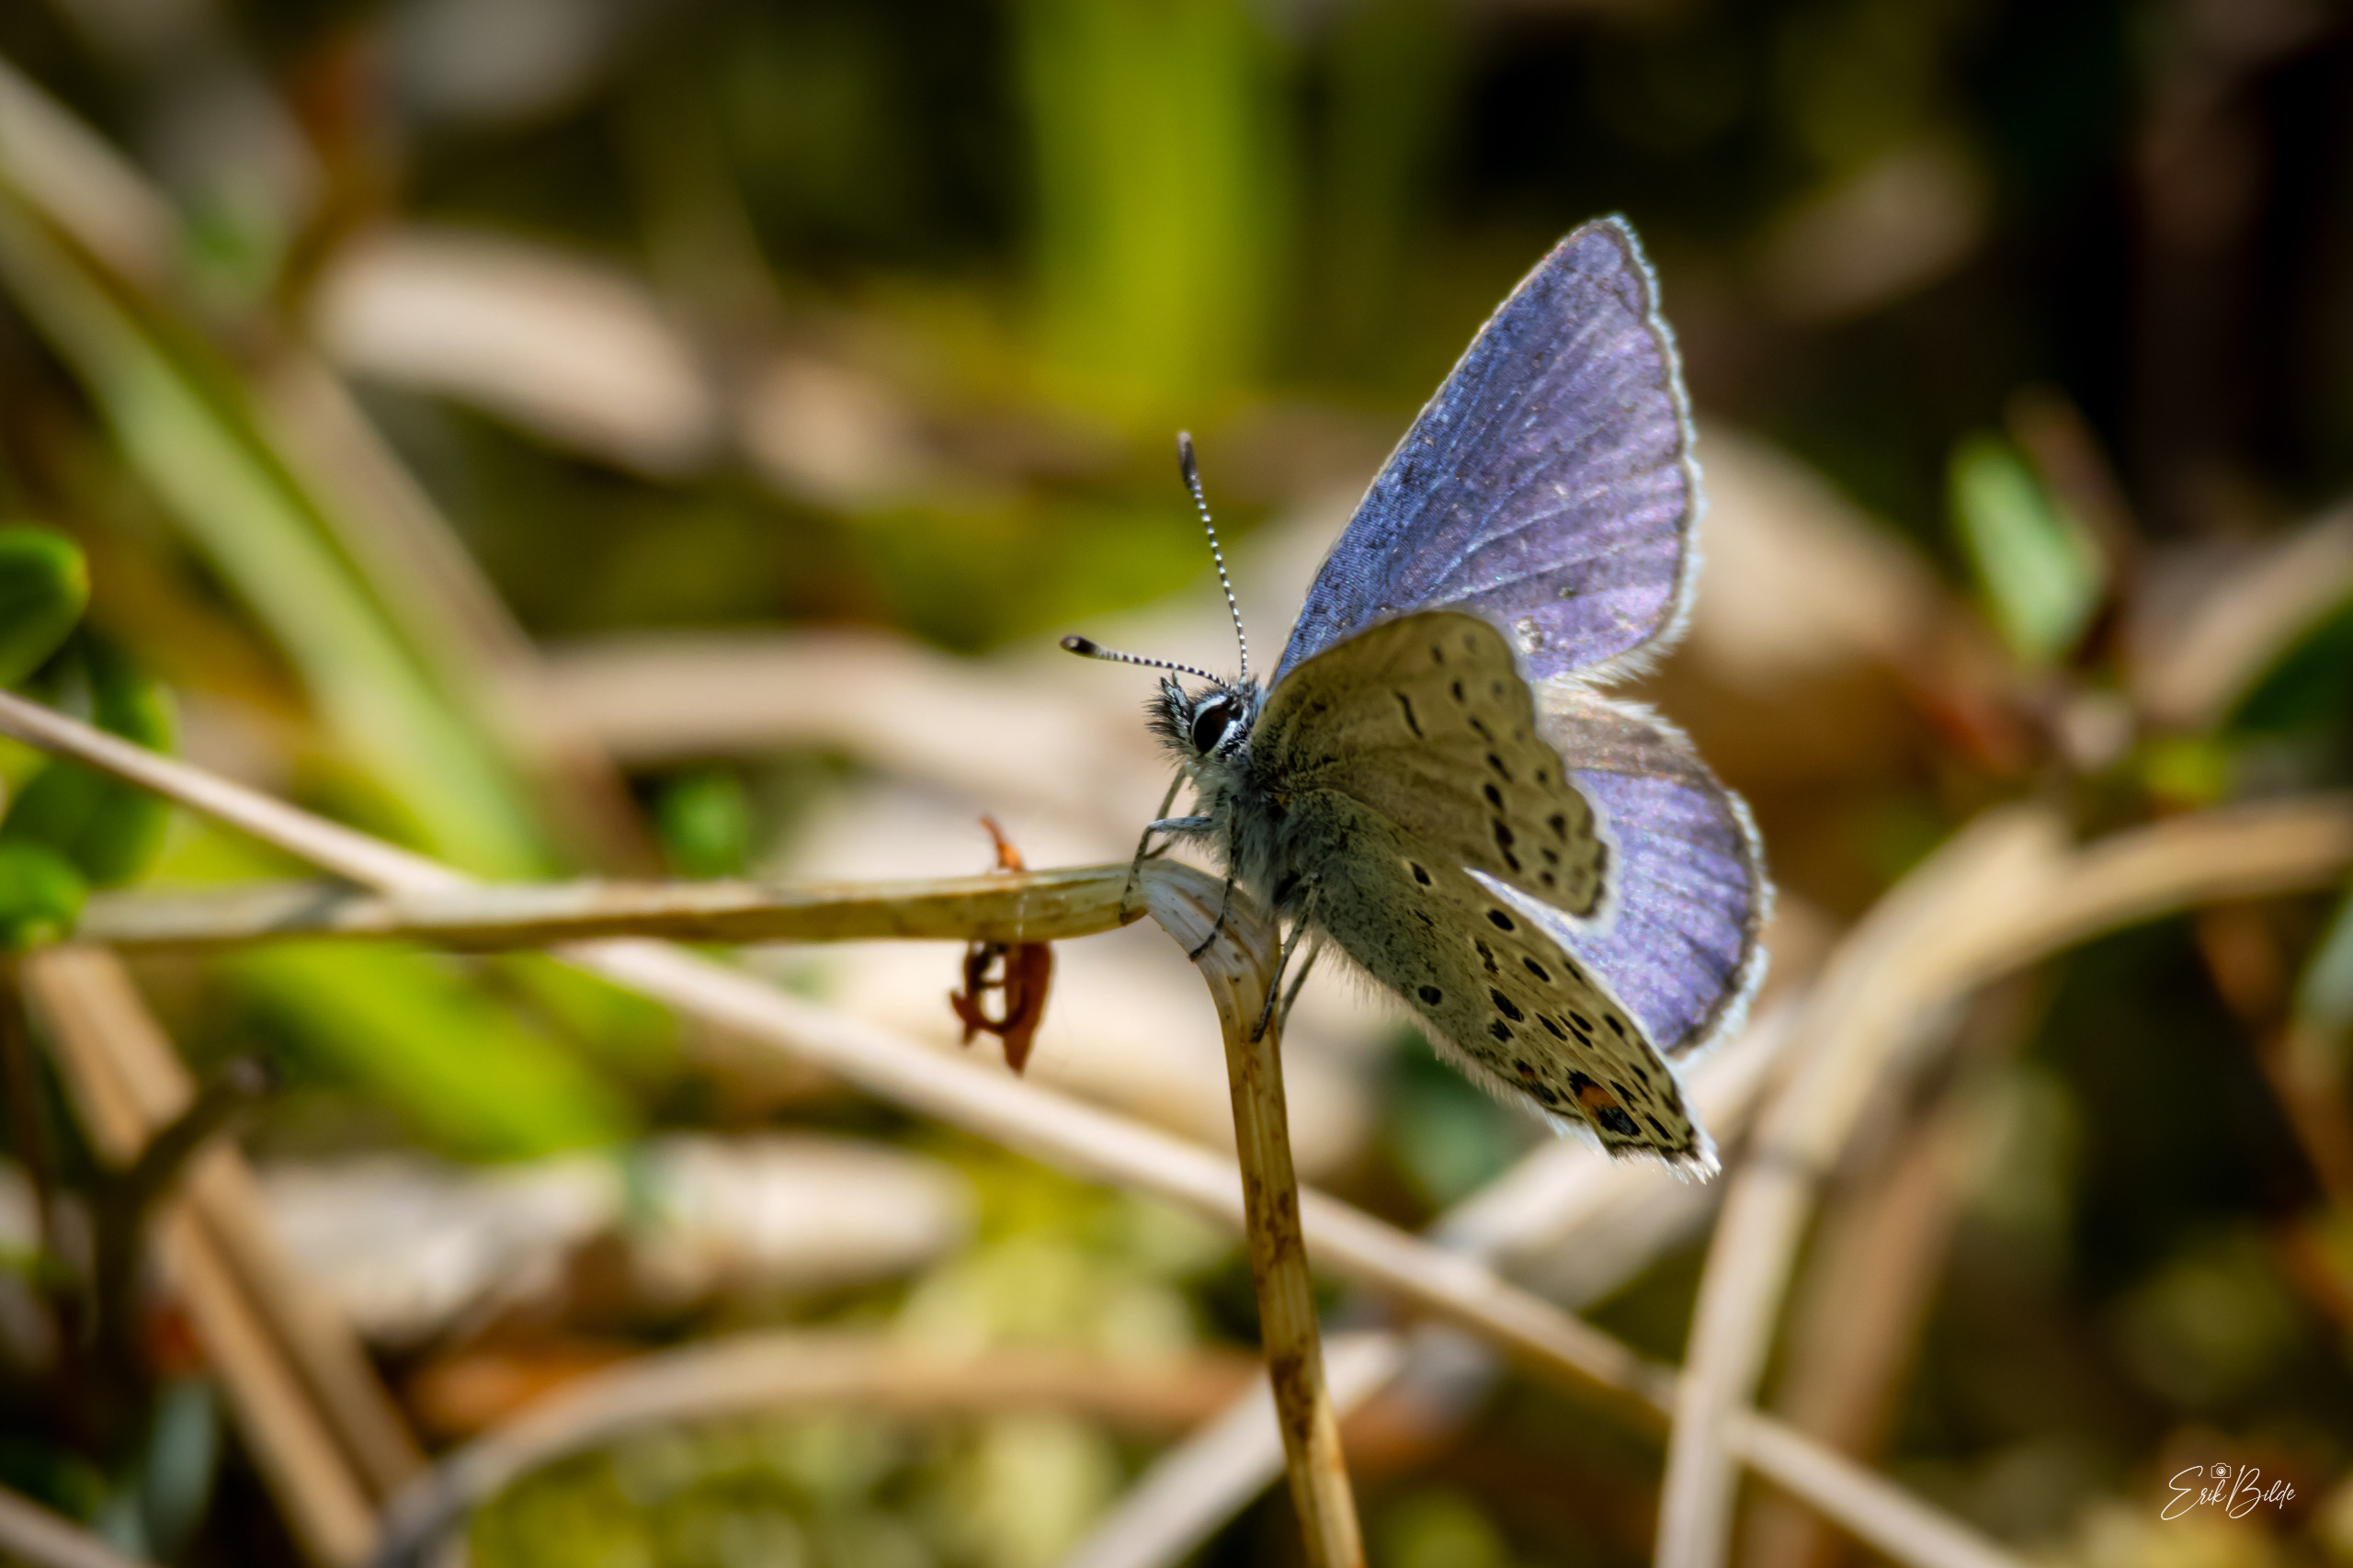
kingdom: Animalia
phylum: Arthropoda
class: Insecta
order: Lepidoptera
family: Lycaenidae
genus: Vacciniina
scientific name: Vacciniina optilete
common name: Bølleblåfugl
